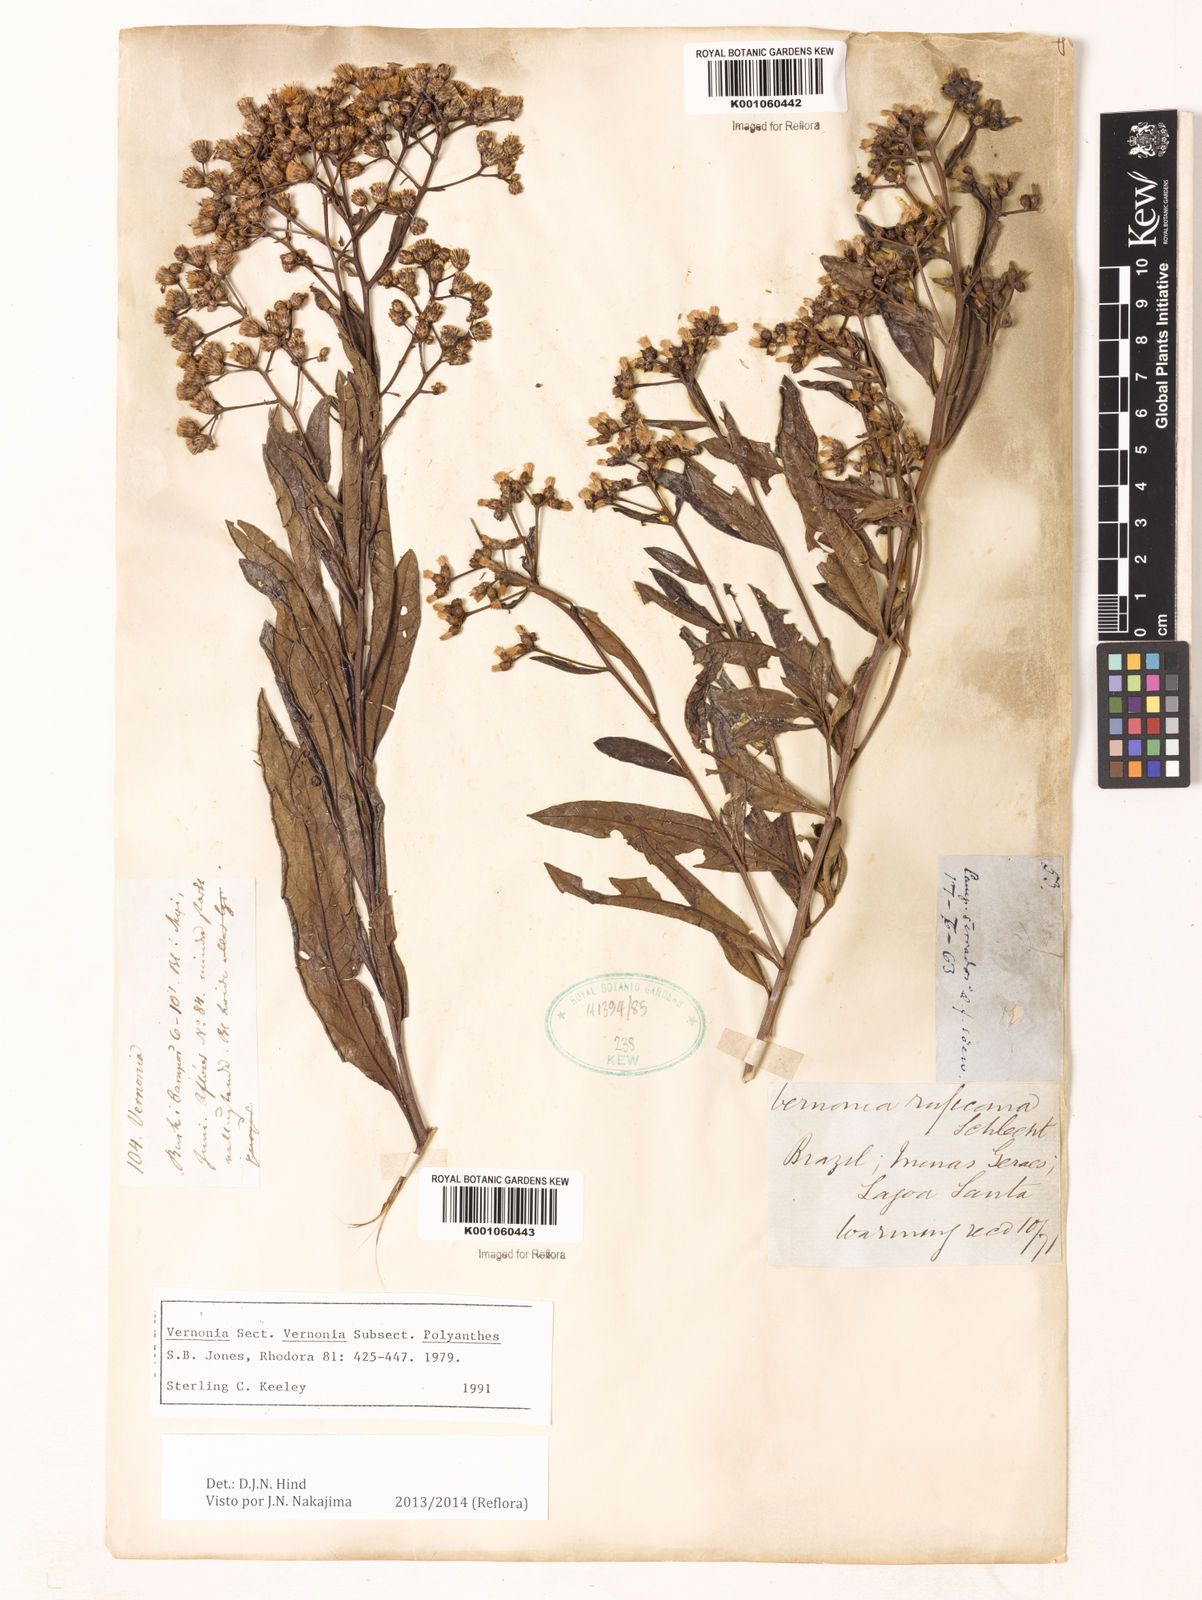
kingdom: Plantae
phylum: Tracheophyta
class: Magnoliopsida
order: Asterales
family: Asteraceae
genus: Vernonia
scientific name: Vernonia
